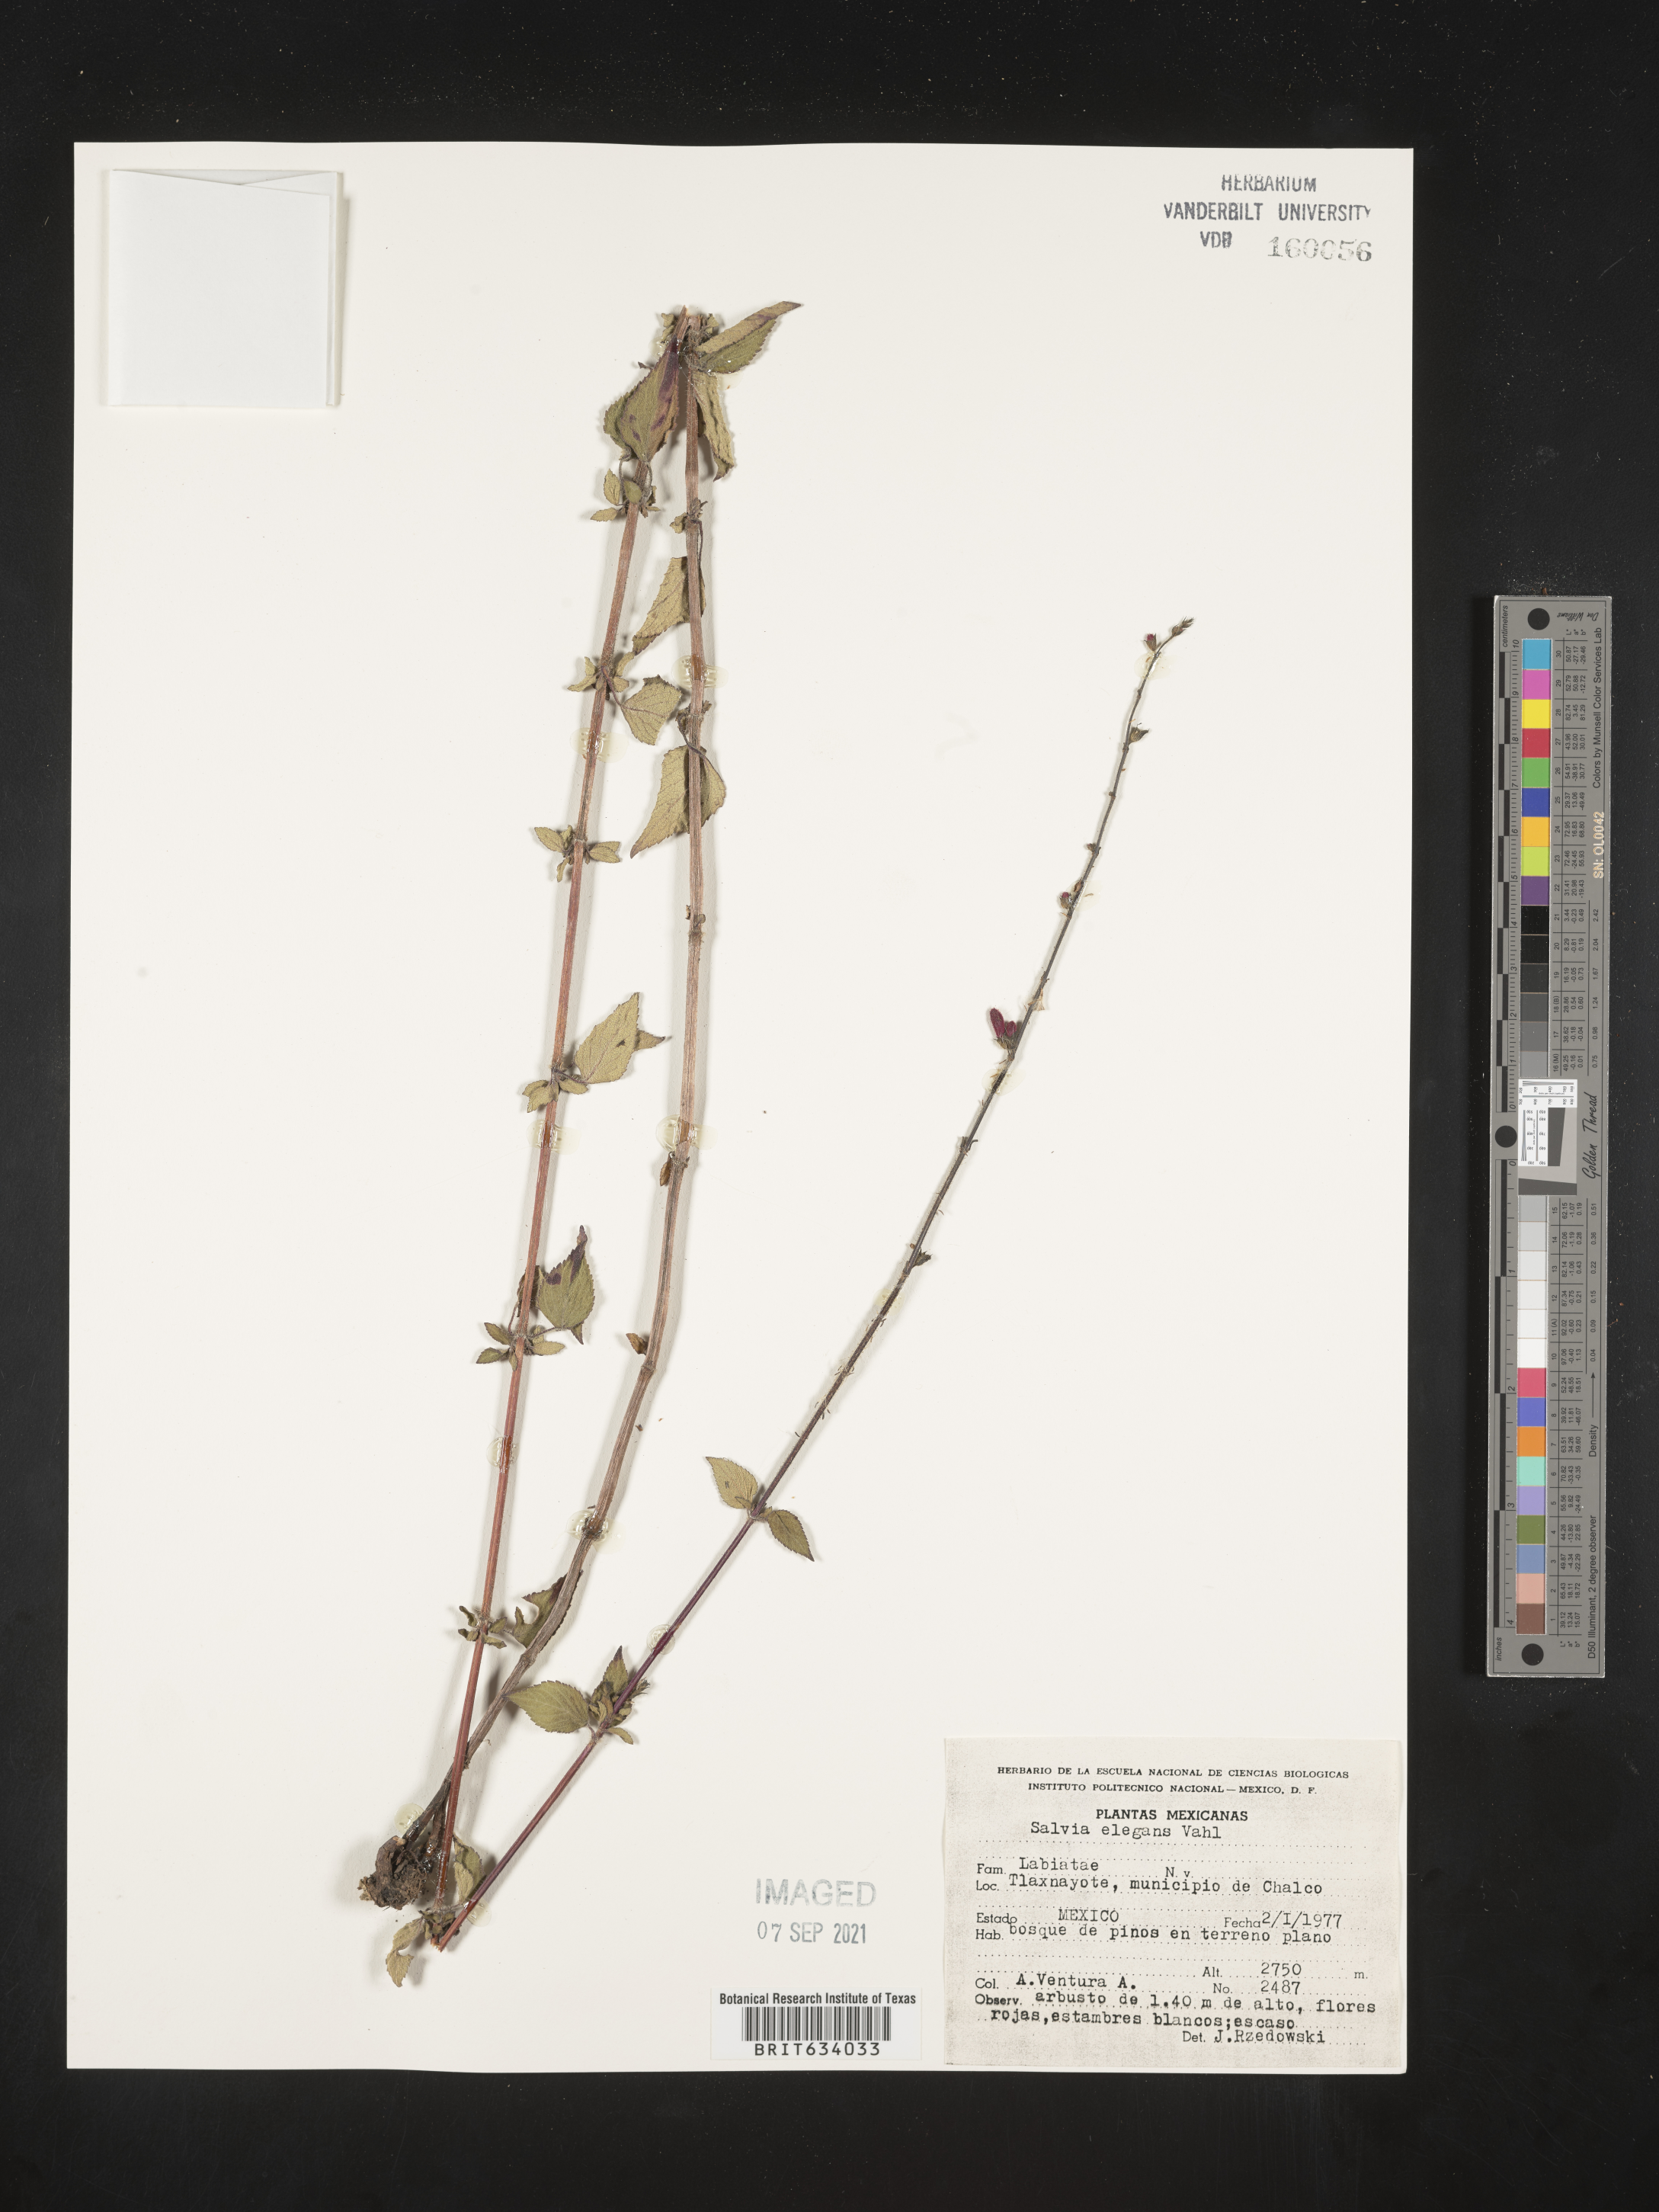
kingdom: Plantae
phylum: Tracheophyta
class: Magnoliopsida
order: Lamiales
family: Lamiaceae
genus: Salvia
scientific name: Salvia
